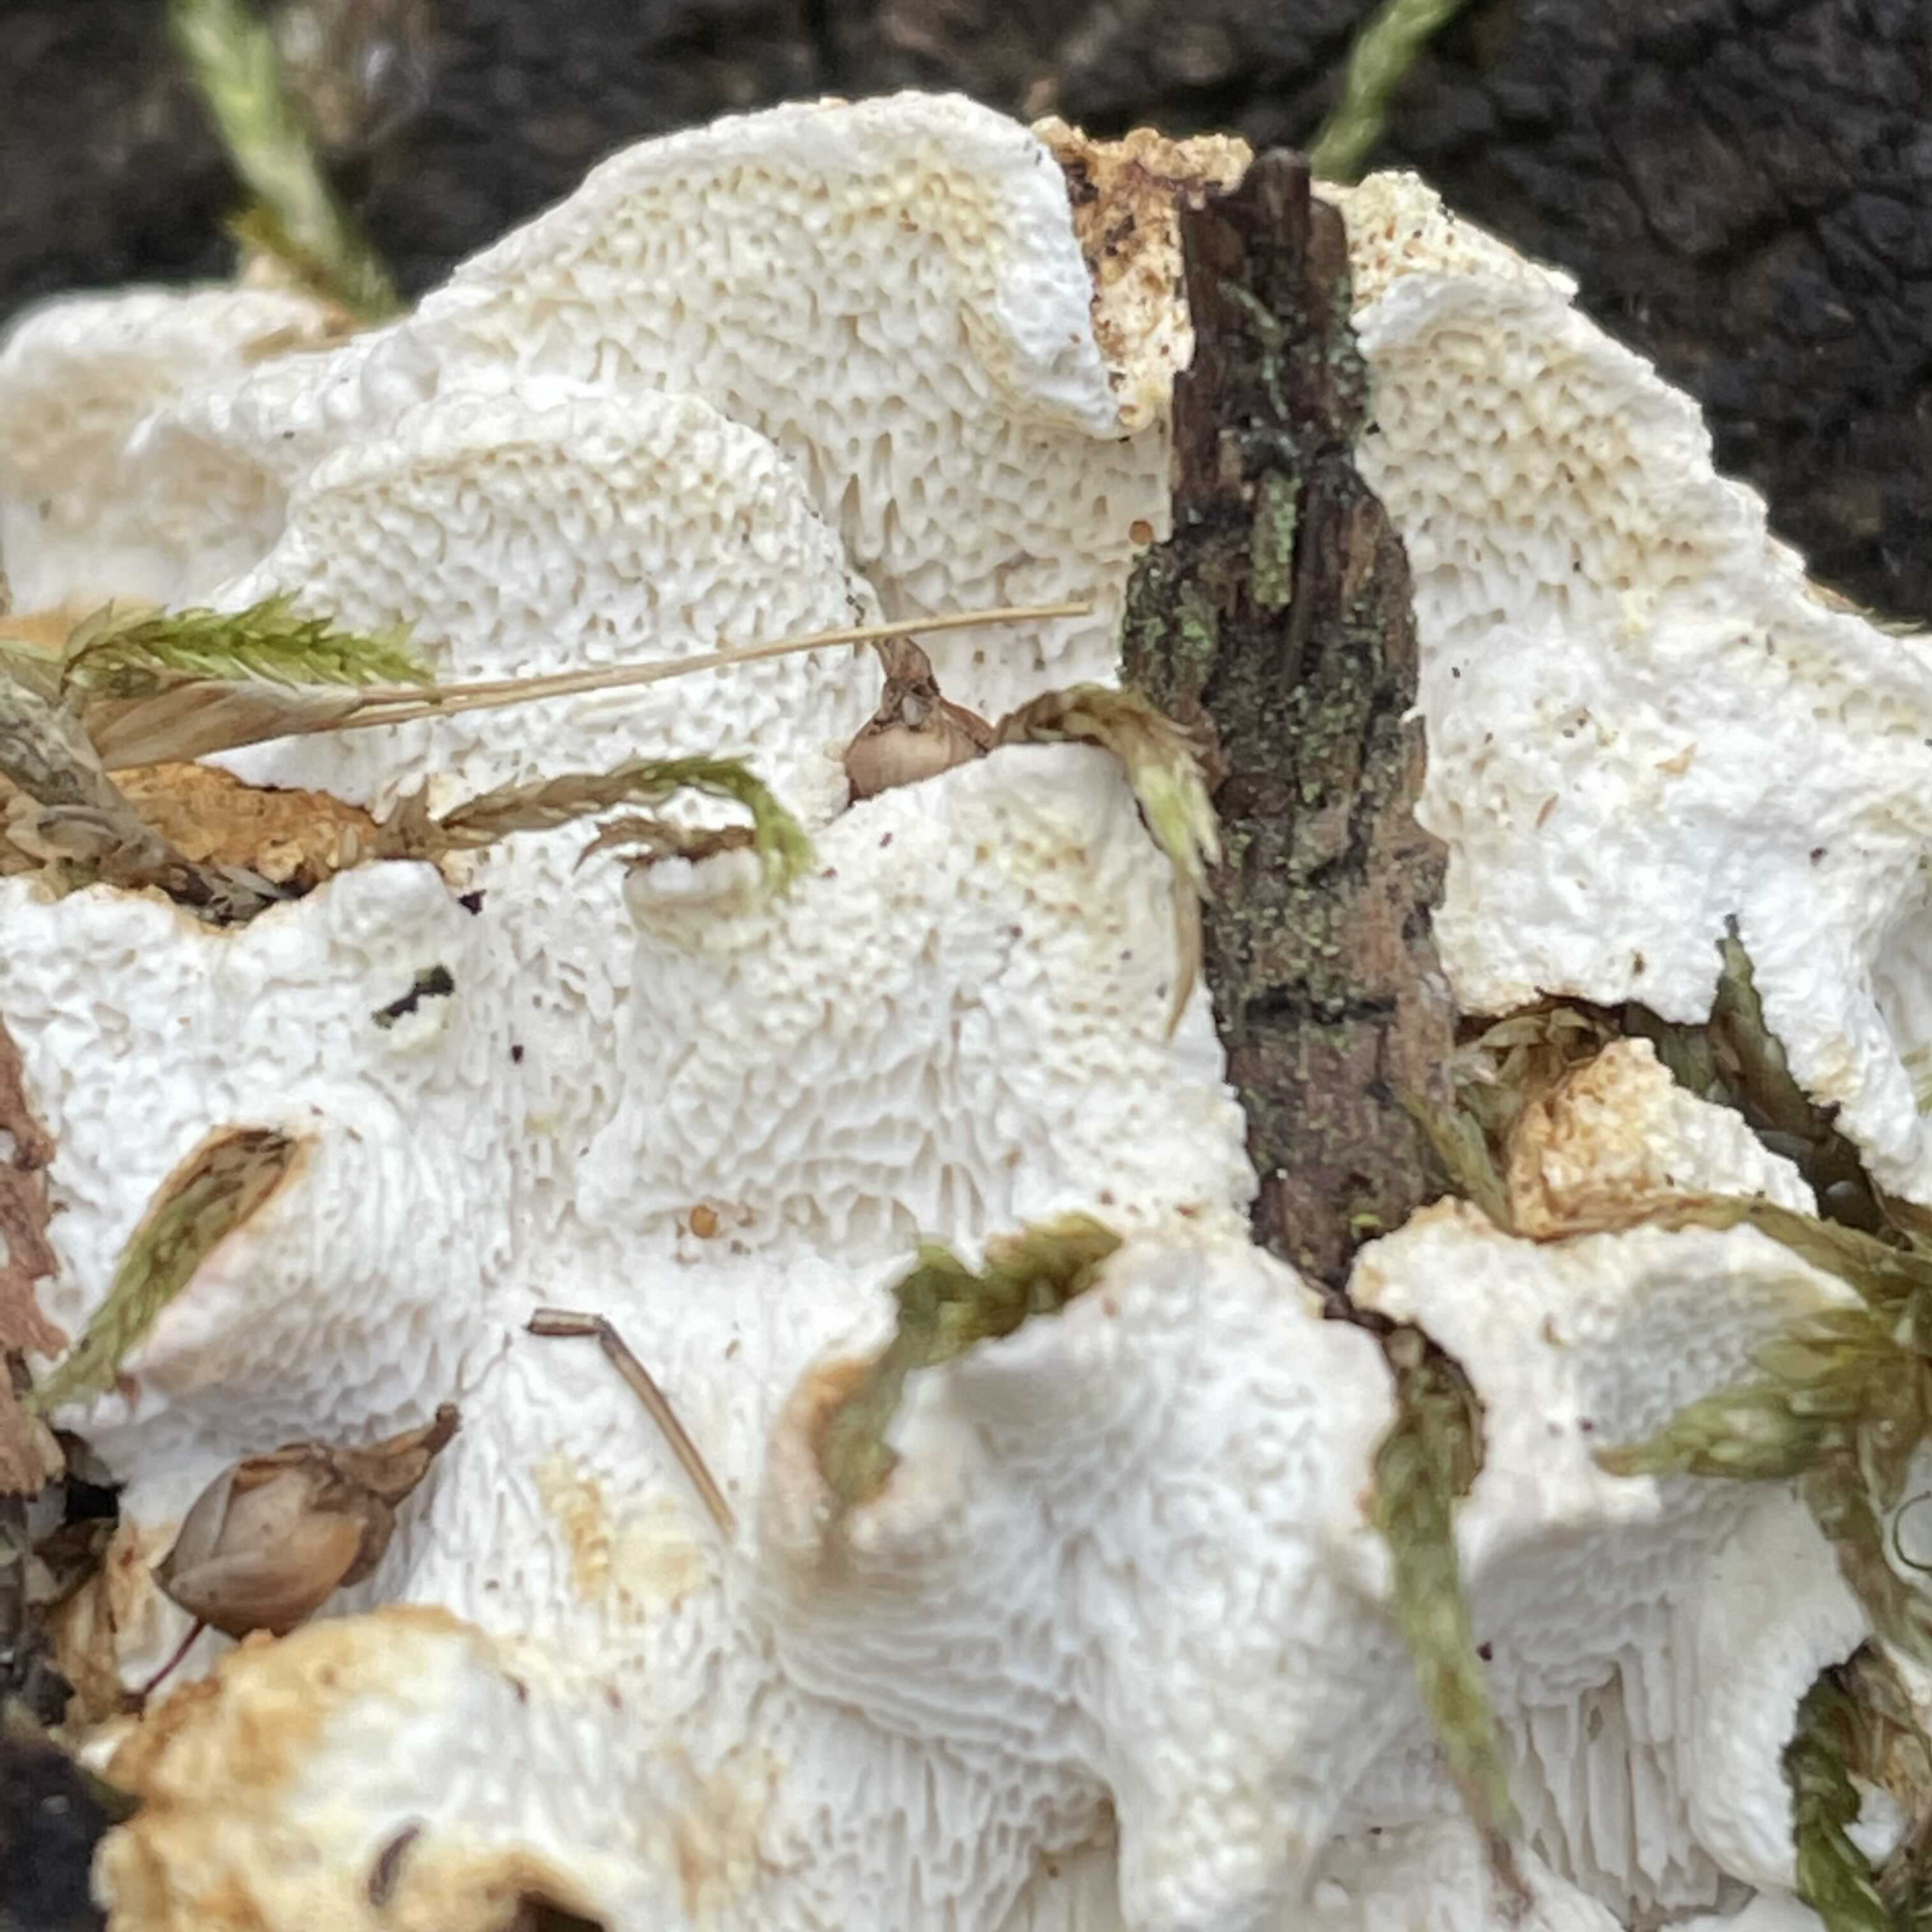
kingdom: Fungi
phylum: Basidiomycota
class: Agaricomycetes
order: Polyporales
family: Fomitopsidaceae
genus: Neoantrodia
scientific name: Neoantrodia serialis
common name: række-sejporesvamp
